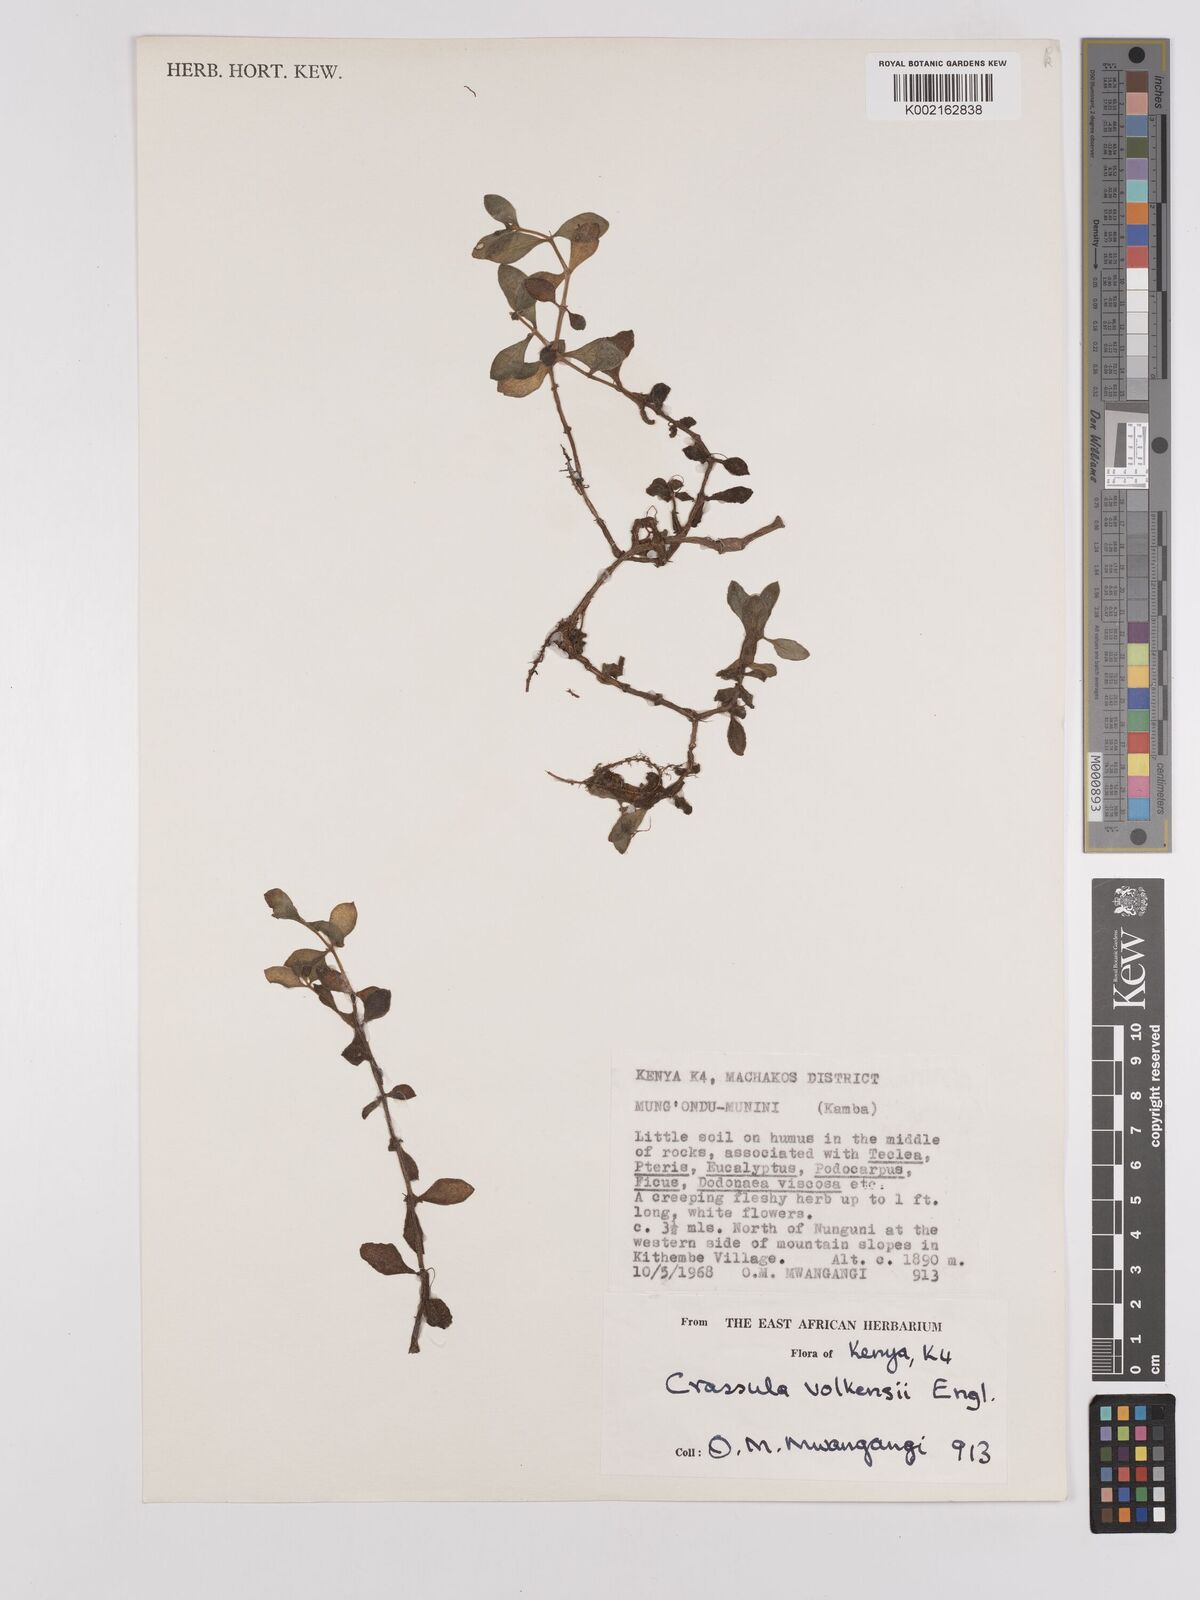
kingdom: Plantae
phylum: Tracheophyta
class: Magnoliopsida
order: Saxifragales
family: Crassulaceae
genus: Crassula
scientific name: Crassula volkensii
